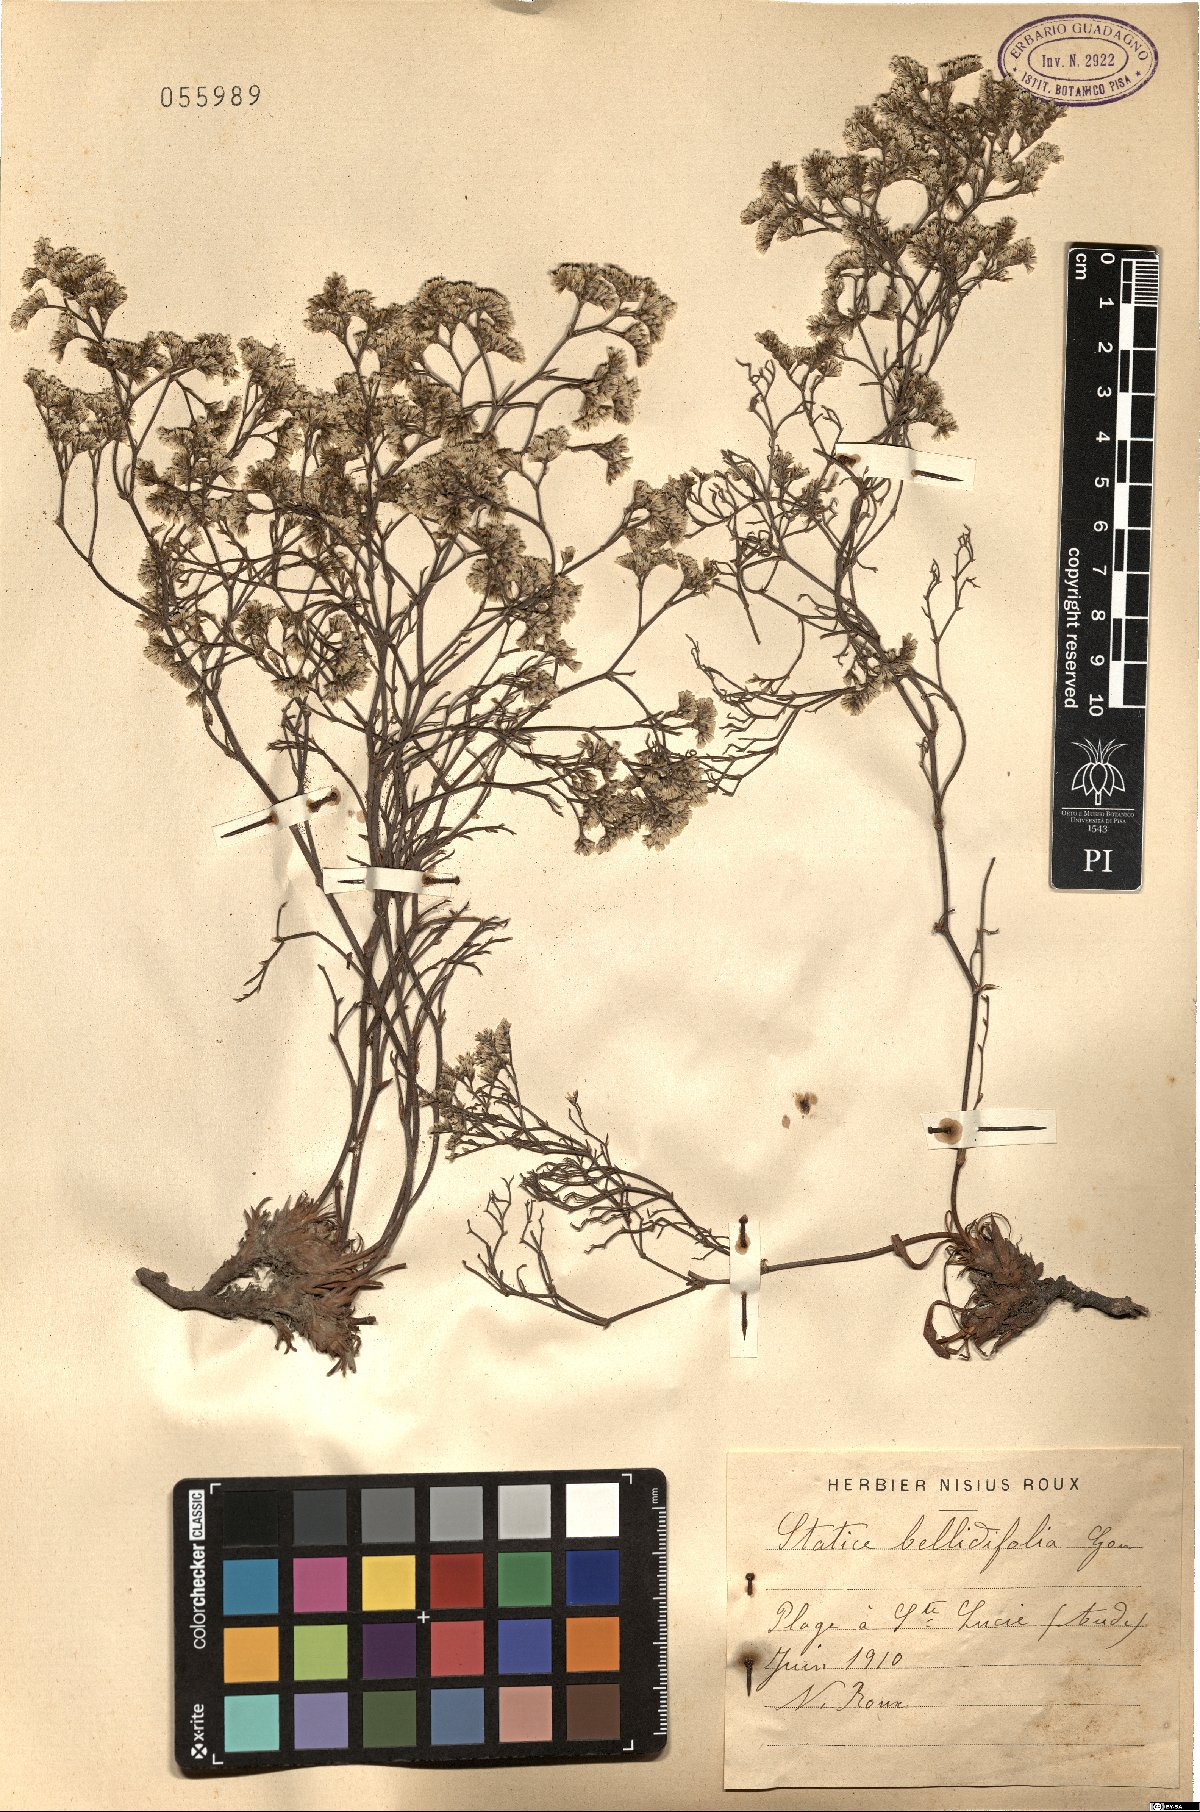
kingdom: Plantae
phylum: Tracheophyta
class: Magnoliopsida
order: Caryophyllales
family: Plumbaginaceae
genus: Limonium
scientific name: Limonium bellidifolium
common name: Matted sea-lavender
